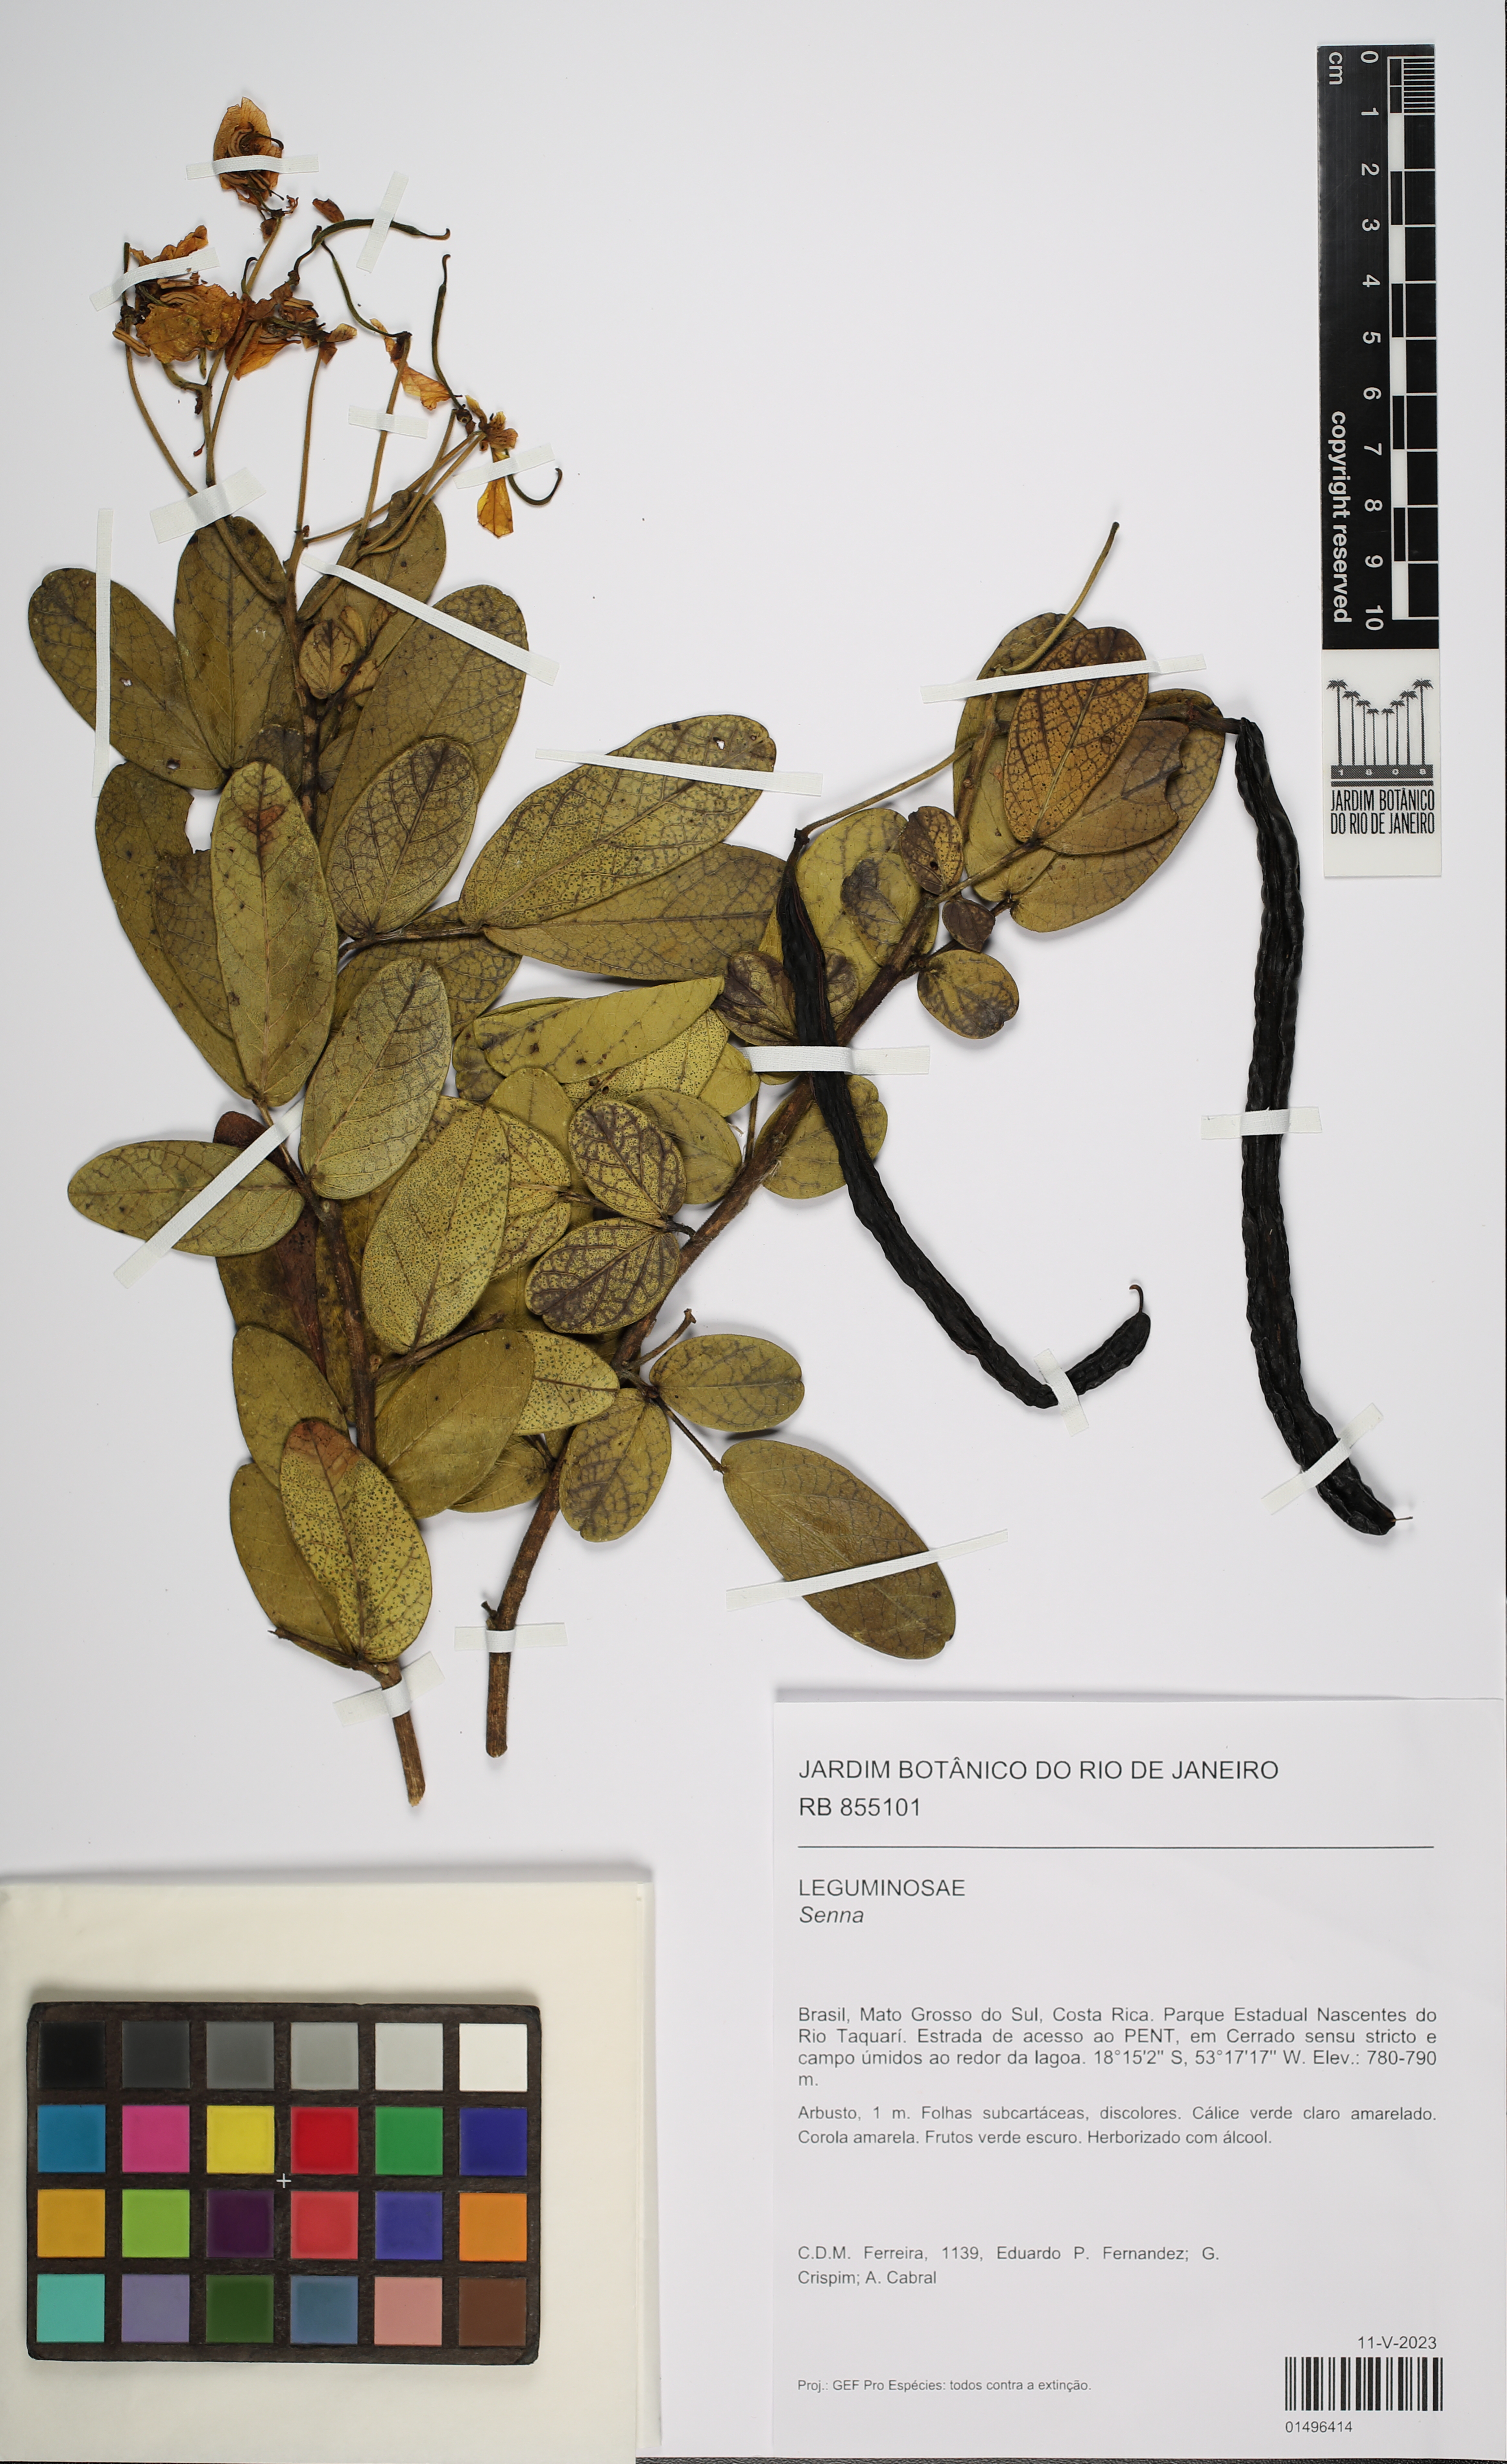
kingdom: Plantae
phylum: Tracheophyta
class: Magnoliopsida
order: Fabales
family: Fabaceae
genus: Senna
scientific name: Senna
